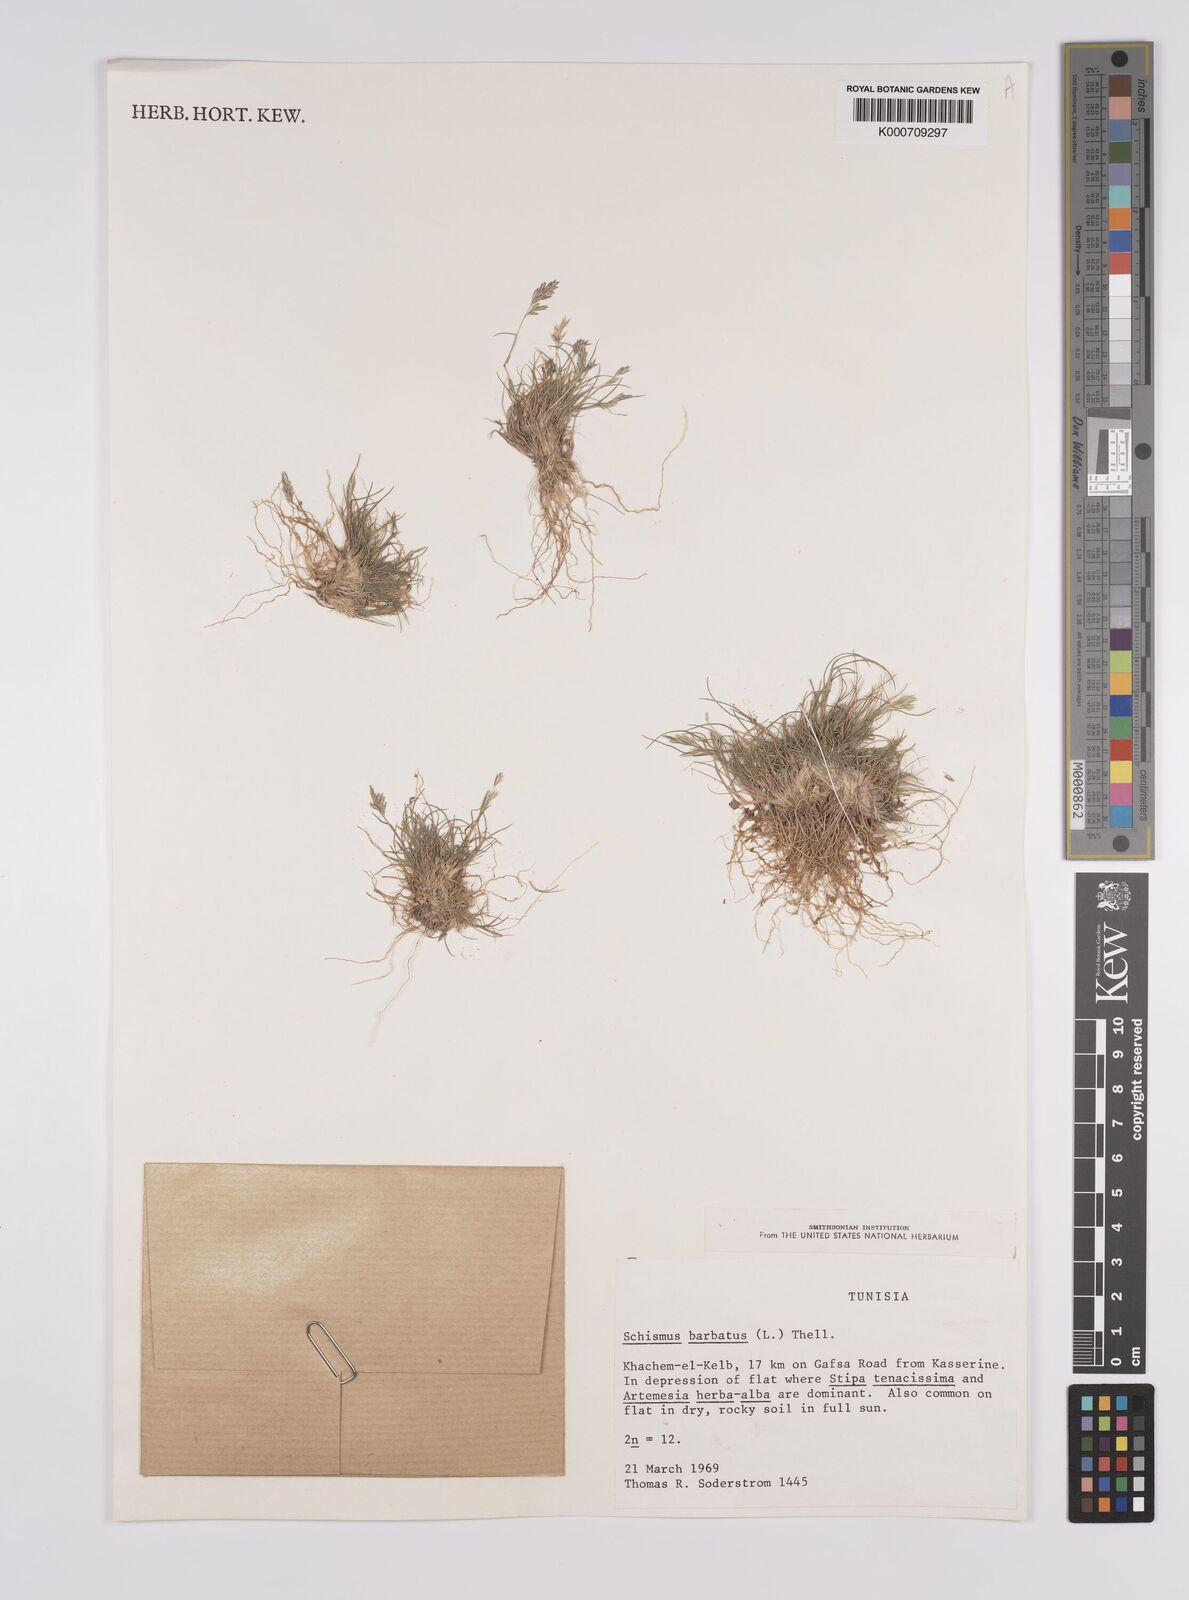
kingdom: Plantae
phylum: Tracheophyta
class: Liliopsida
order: Poales
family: Poaceae
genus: Schismus
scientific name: Schismus barbatus
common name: Kelch-grass
